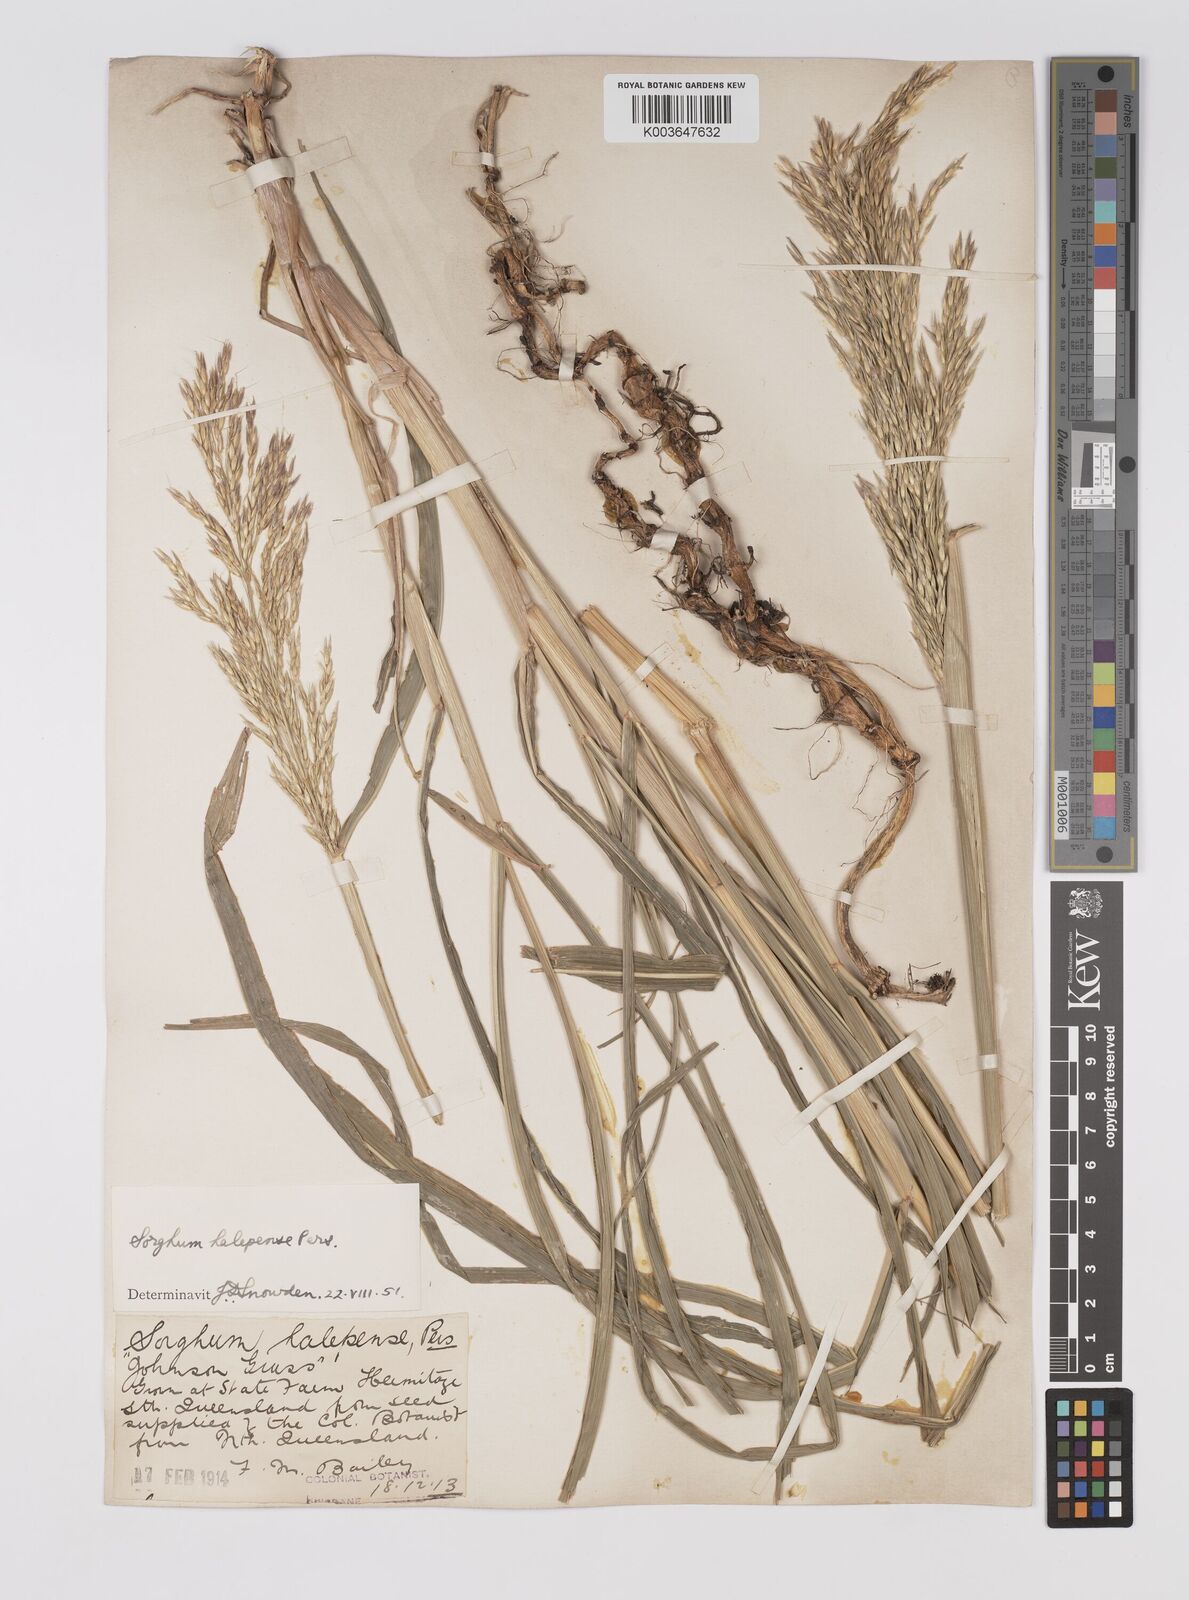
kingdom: Plantae
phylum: Tracheophyta
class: Liliopsida
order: Poales
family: Poaceae
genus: Sorghum
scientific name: Sorghum halepense
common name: Johnson-grass
